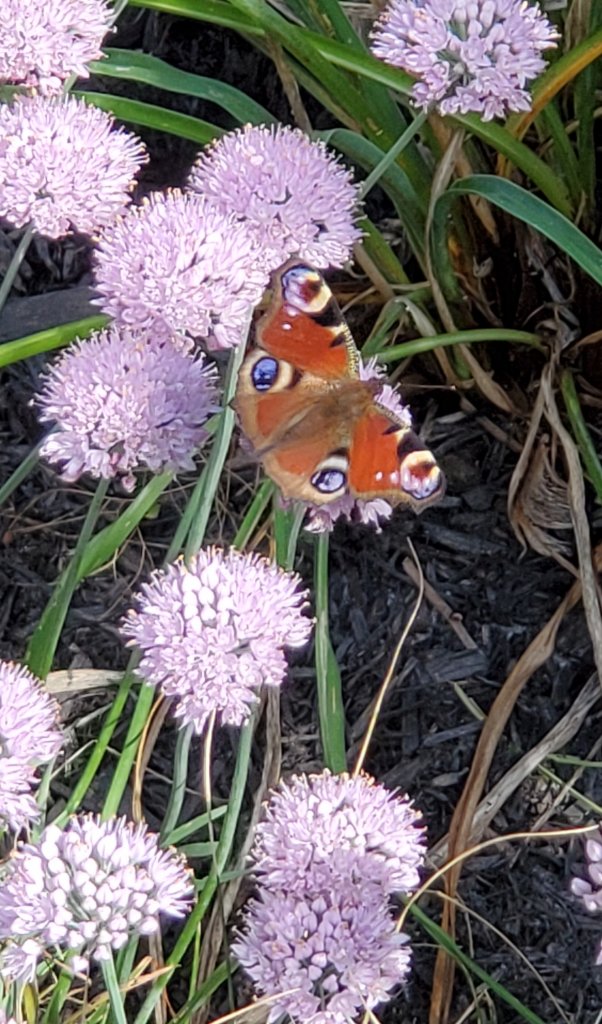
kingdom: Animalia
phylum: Arthropoda
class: Insecta
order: Lepidoptera
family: Nymphalidae
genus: Aglais
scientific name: Aglais io
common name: European Peacock
